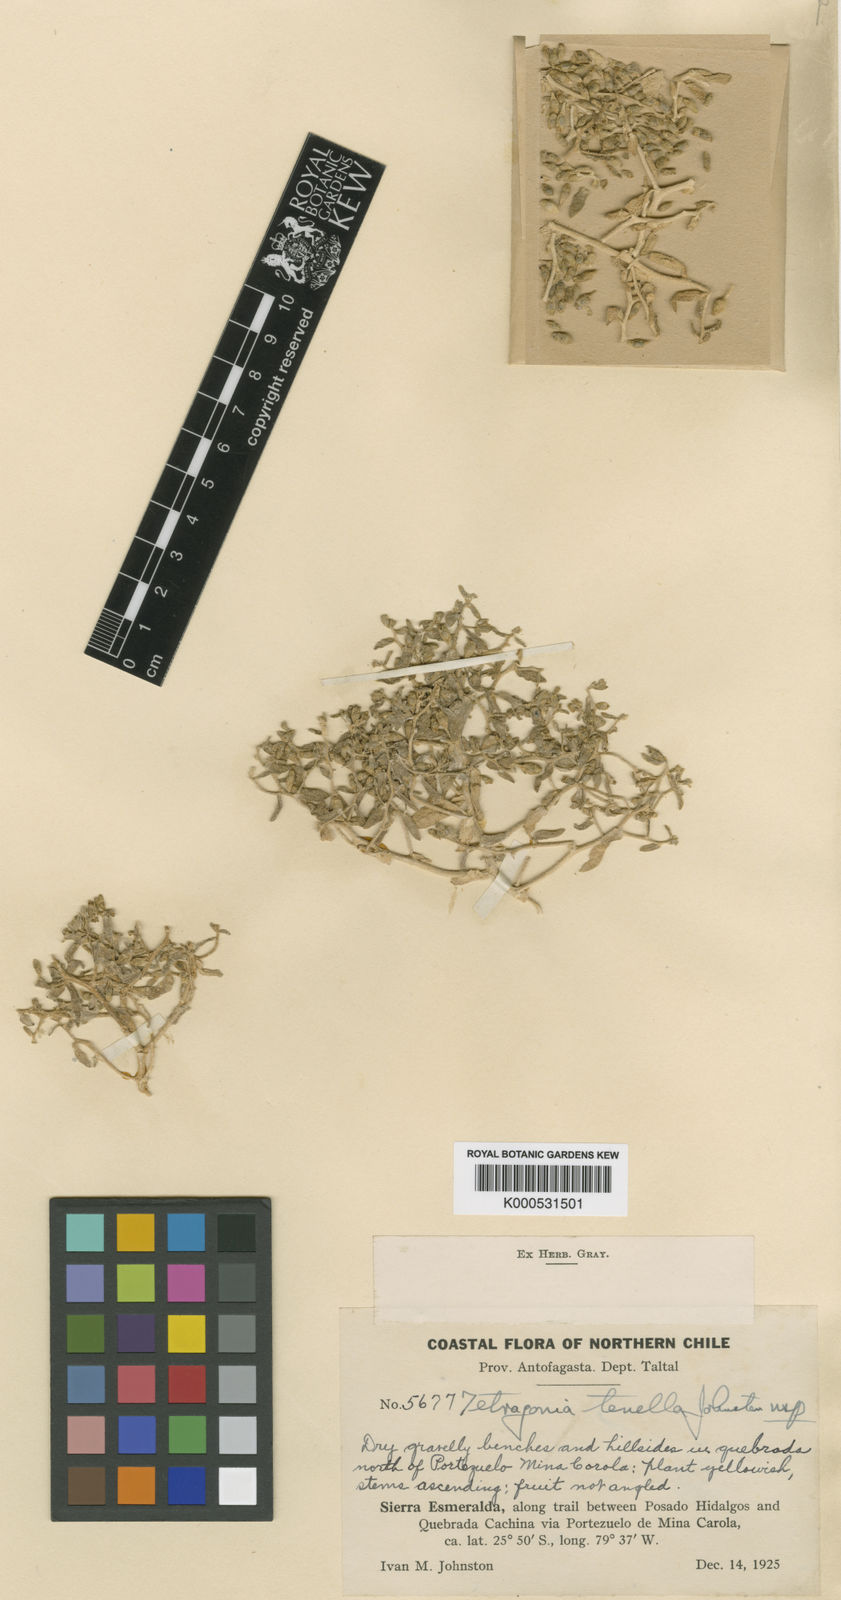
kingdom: Plantae
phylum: Tracheophyta
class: Magnoliopsida
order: Caryophyllales
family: Aizoaceae
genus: Tetragonia
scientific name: Tetragonia microcarpa
